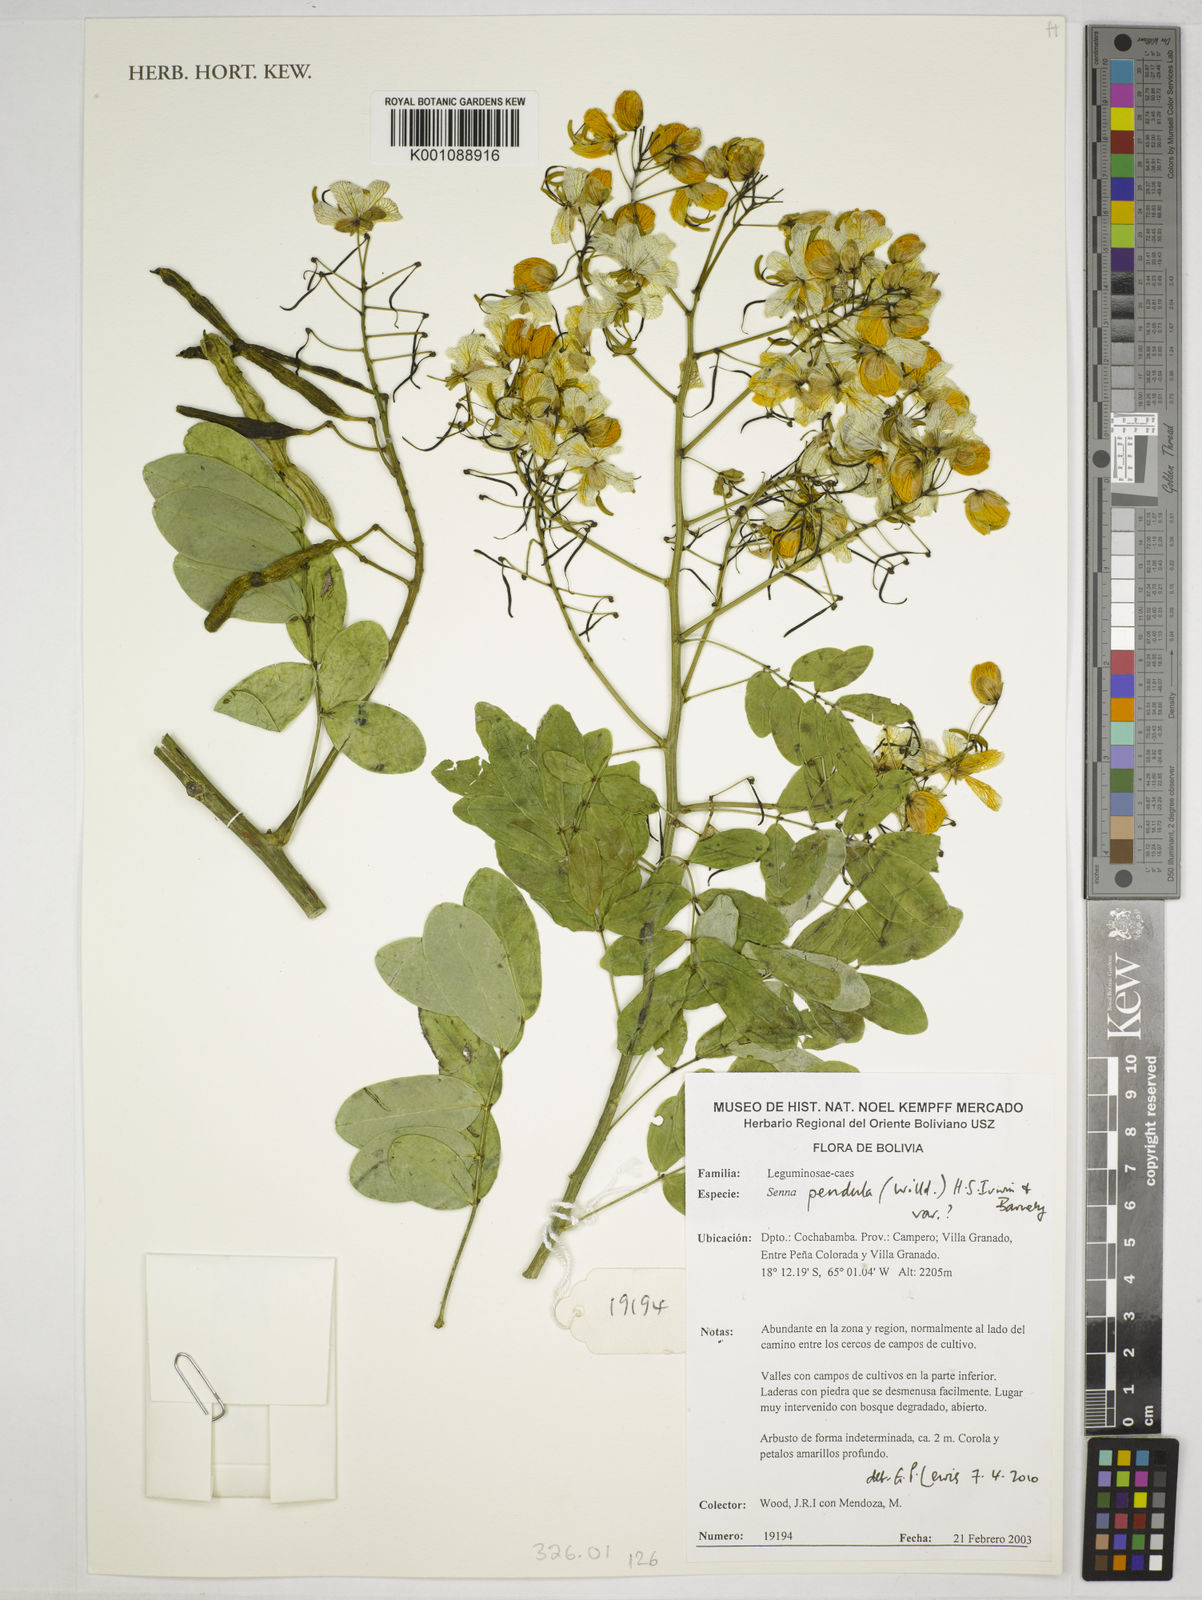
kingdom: Plantae
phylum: Tracheophyta
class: Magnoliopsida
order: Fabales
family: Fabaceae
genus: Senna
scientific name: Senna pendula
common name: Easter cassia
